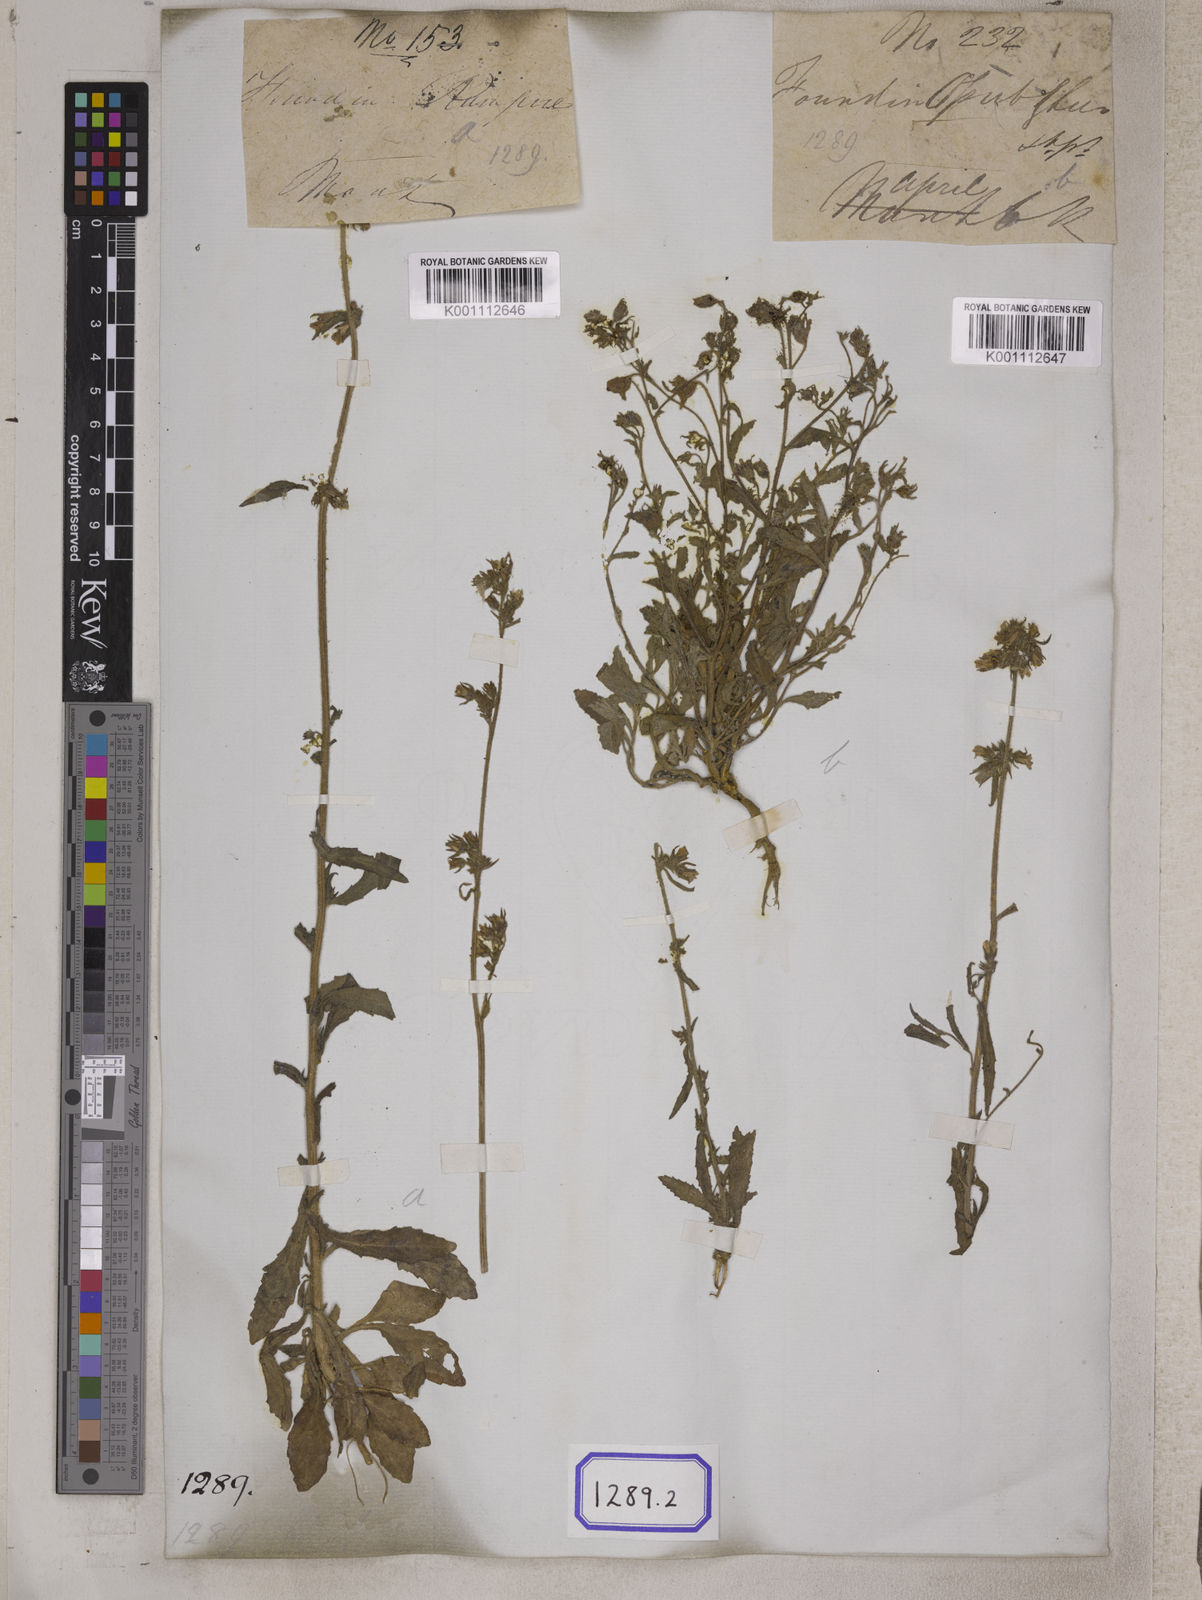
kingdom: Plantae
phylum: Tracheophyta
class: Magnoliopsida
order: Asterales
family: Campanulaceae
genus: Campanula
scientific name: Campanula
